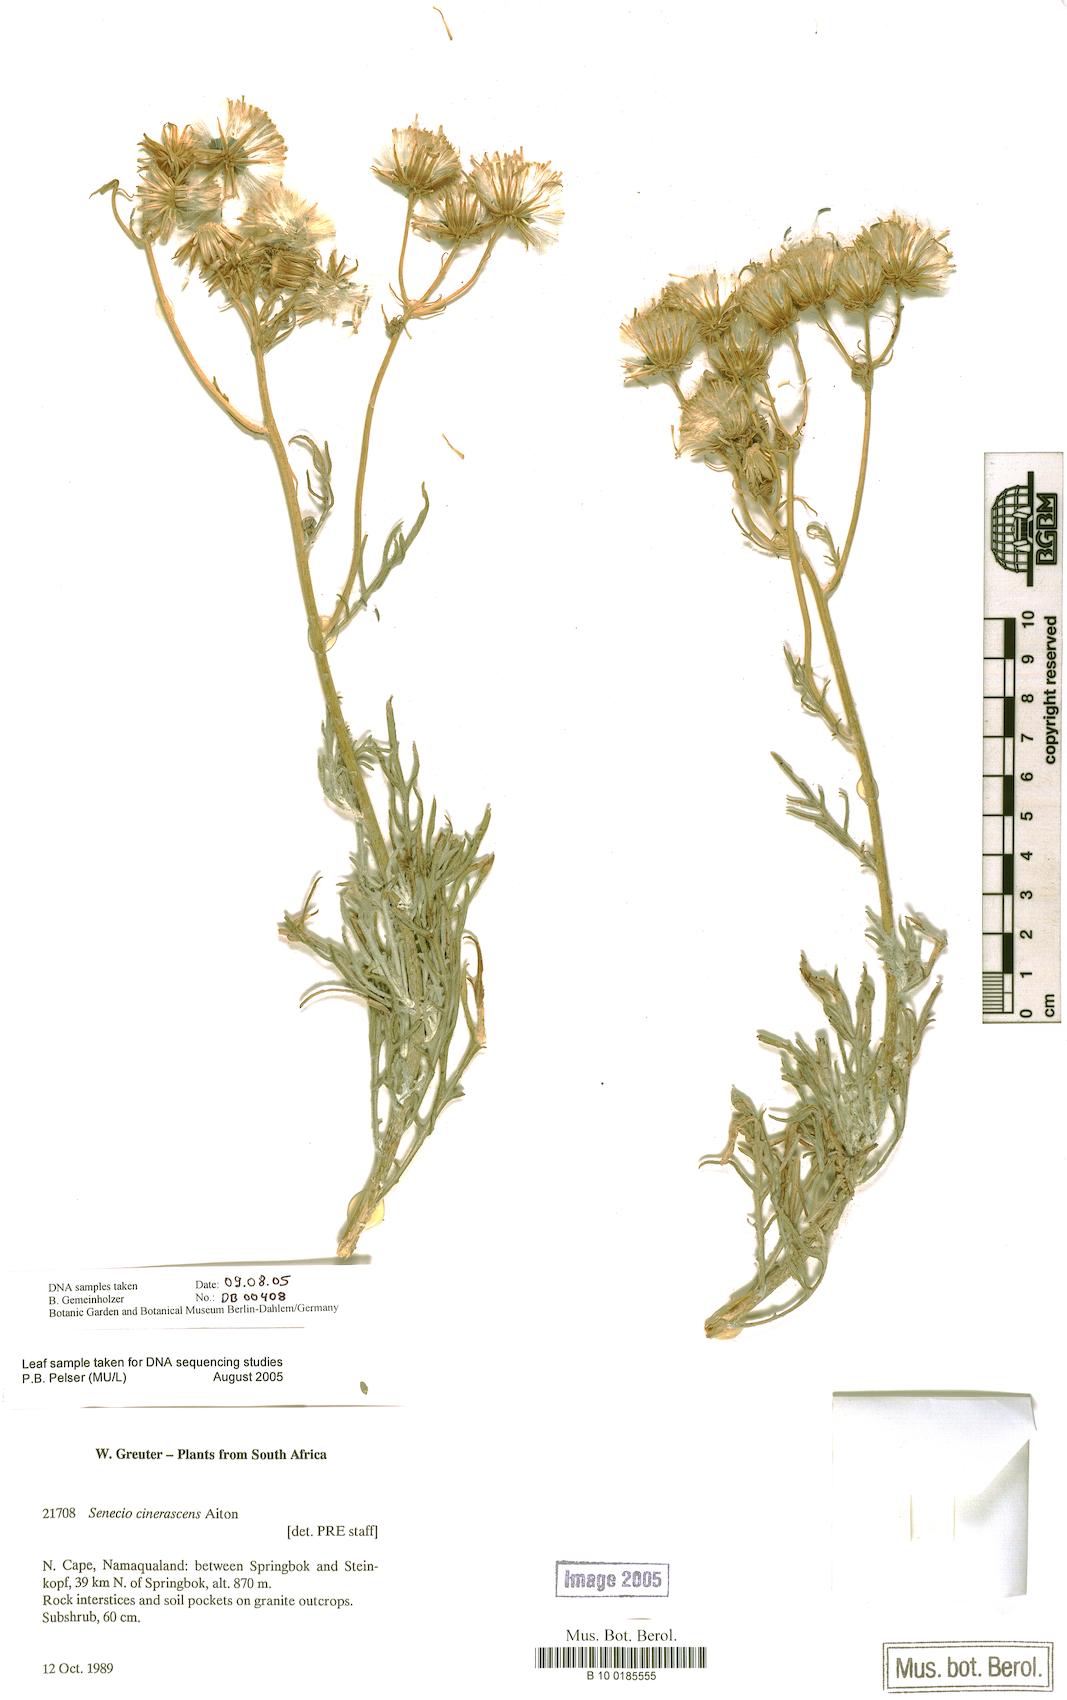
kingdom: Plantae
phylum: Tracheophyta
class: Magnoliopsida
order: Asterales
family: Asteraceae
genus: Senecio
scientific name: Senecio cinerascens
